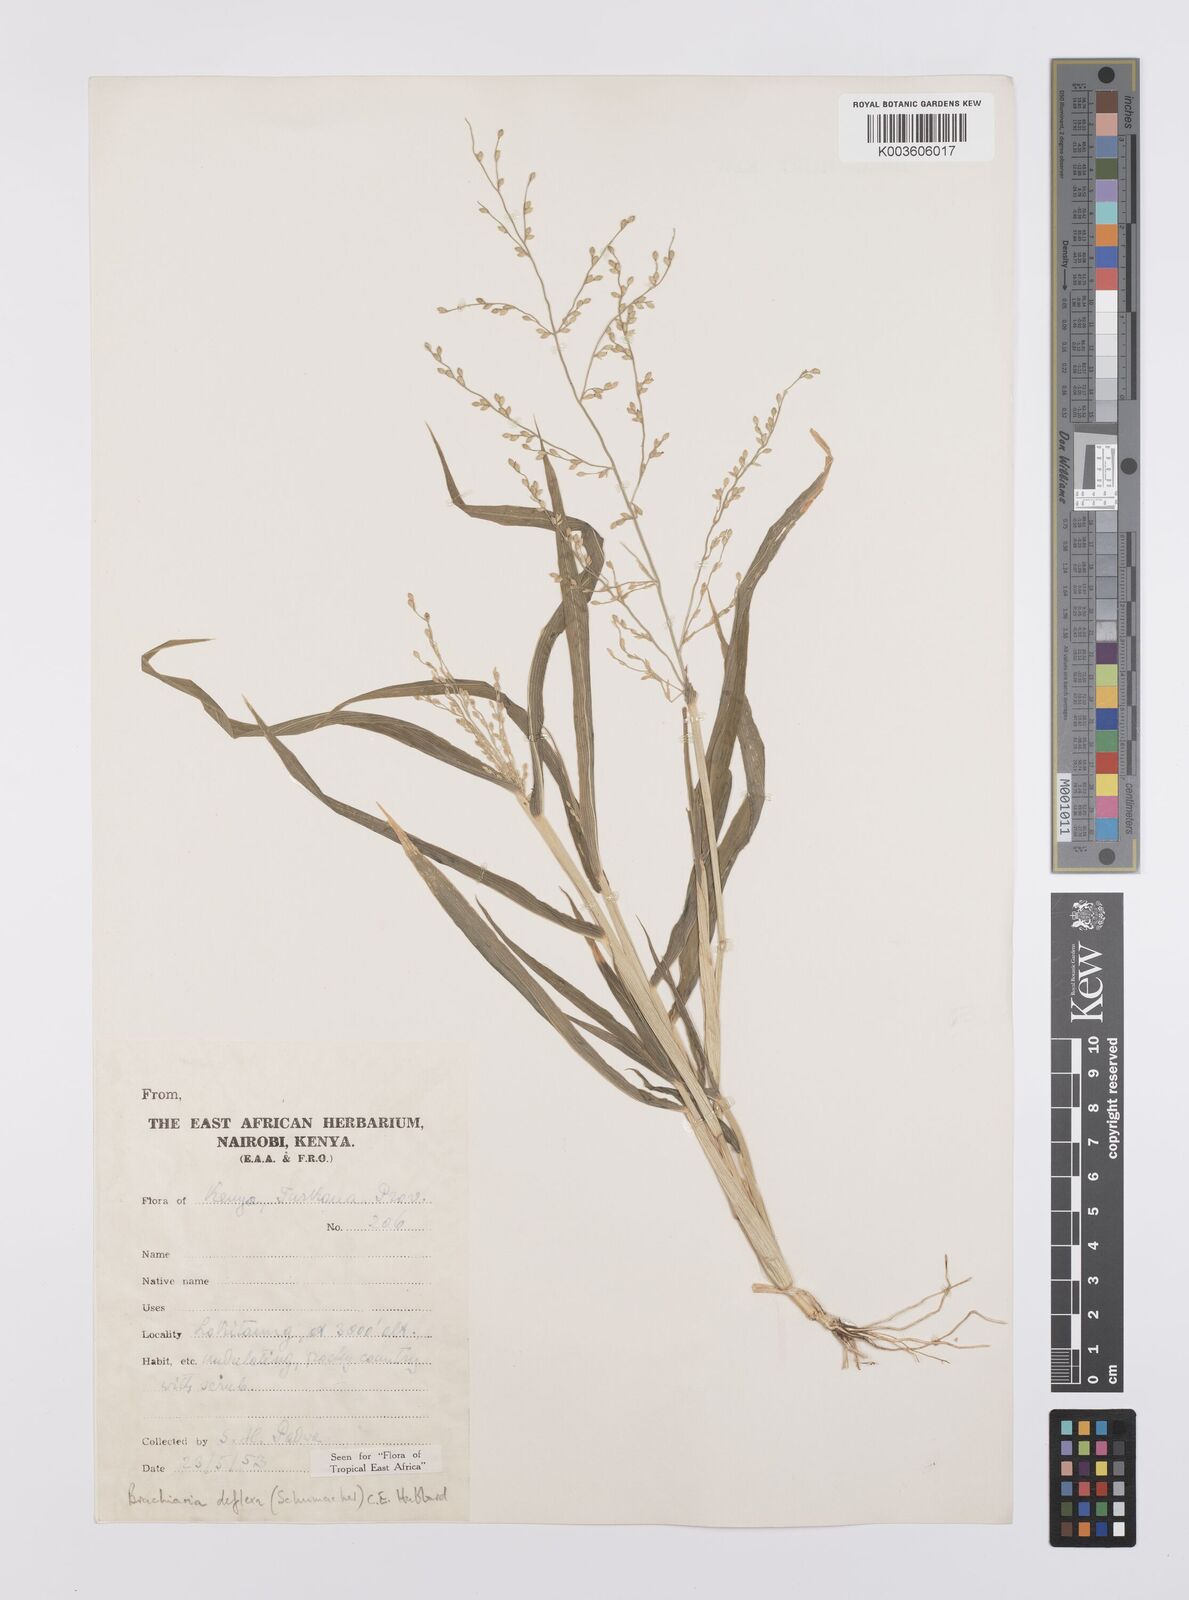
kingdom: Plantae
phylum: Tracheophyta
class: Liliopsida
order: Poales
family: Poaceae
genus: Urochloa
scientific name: Urochloa deflexa
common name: Guinea millet
